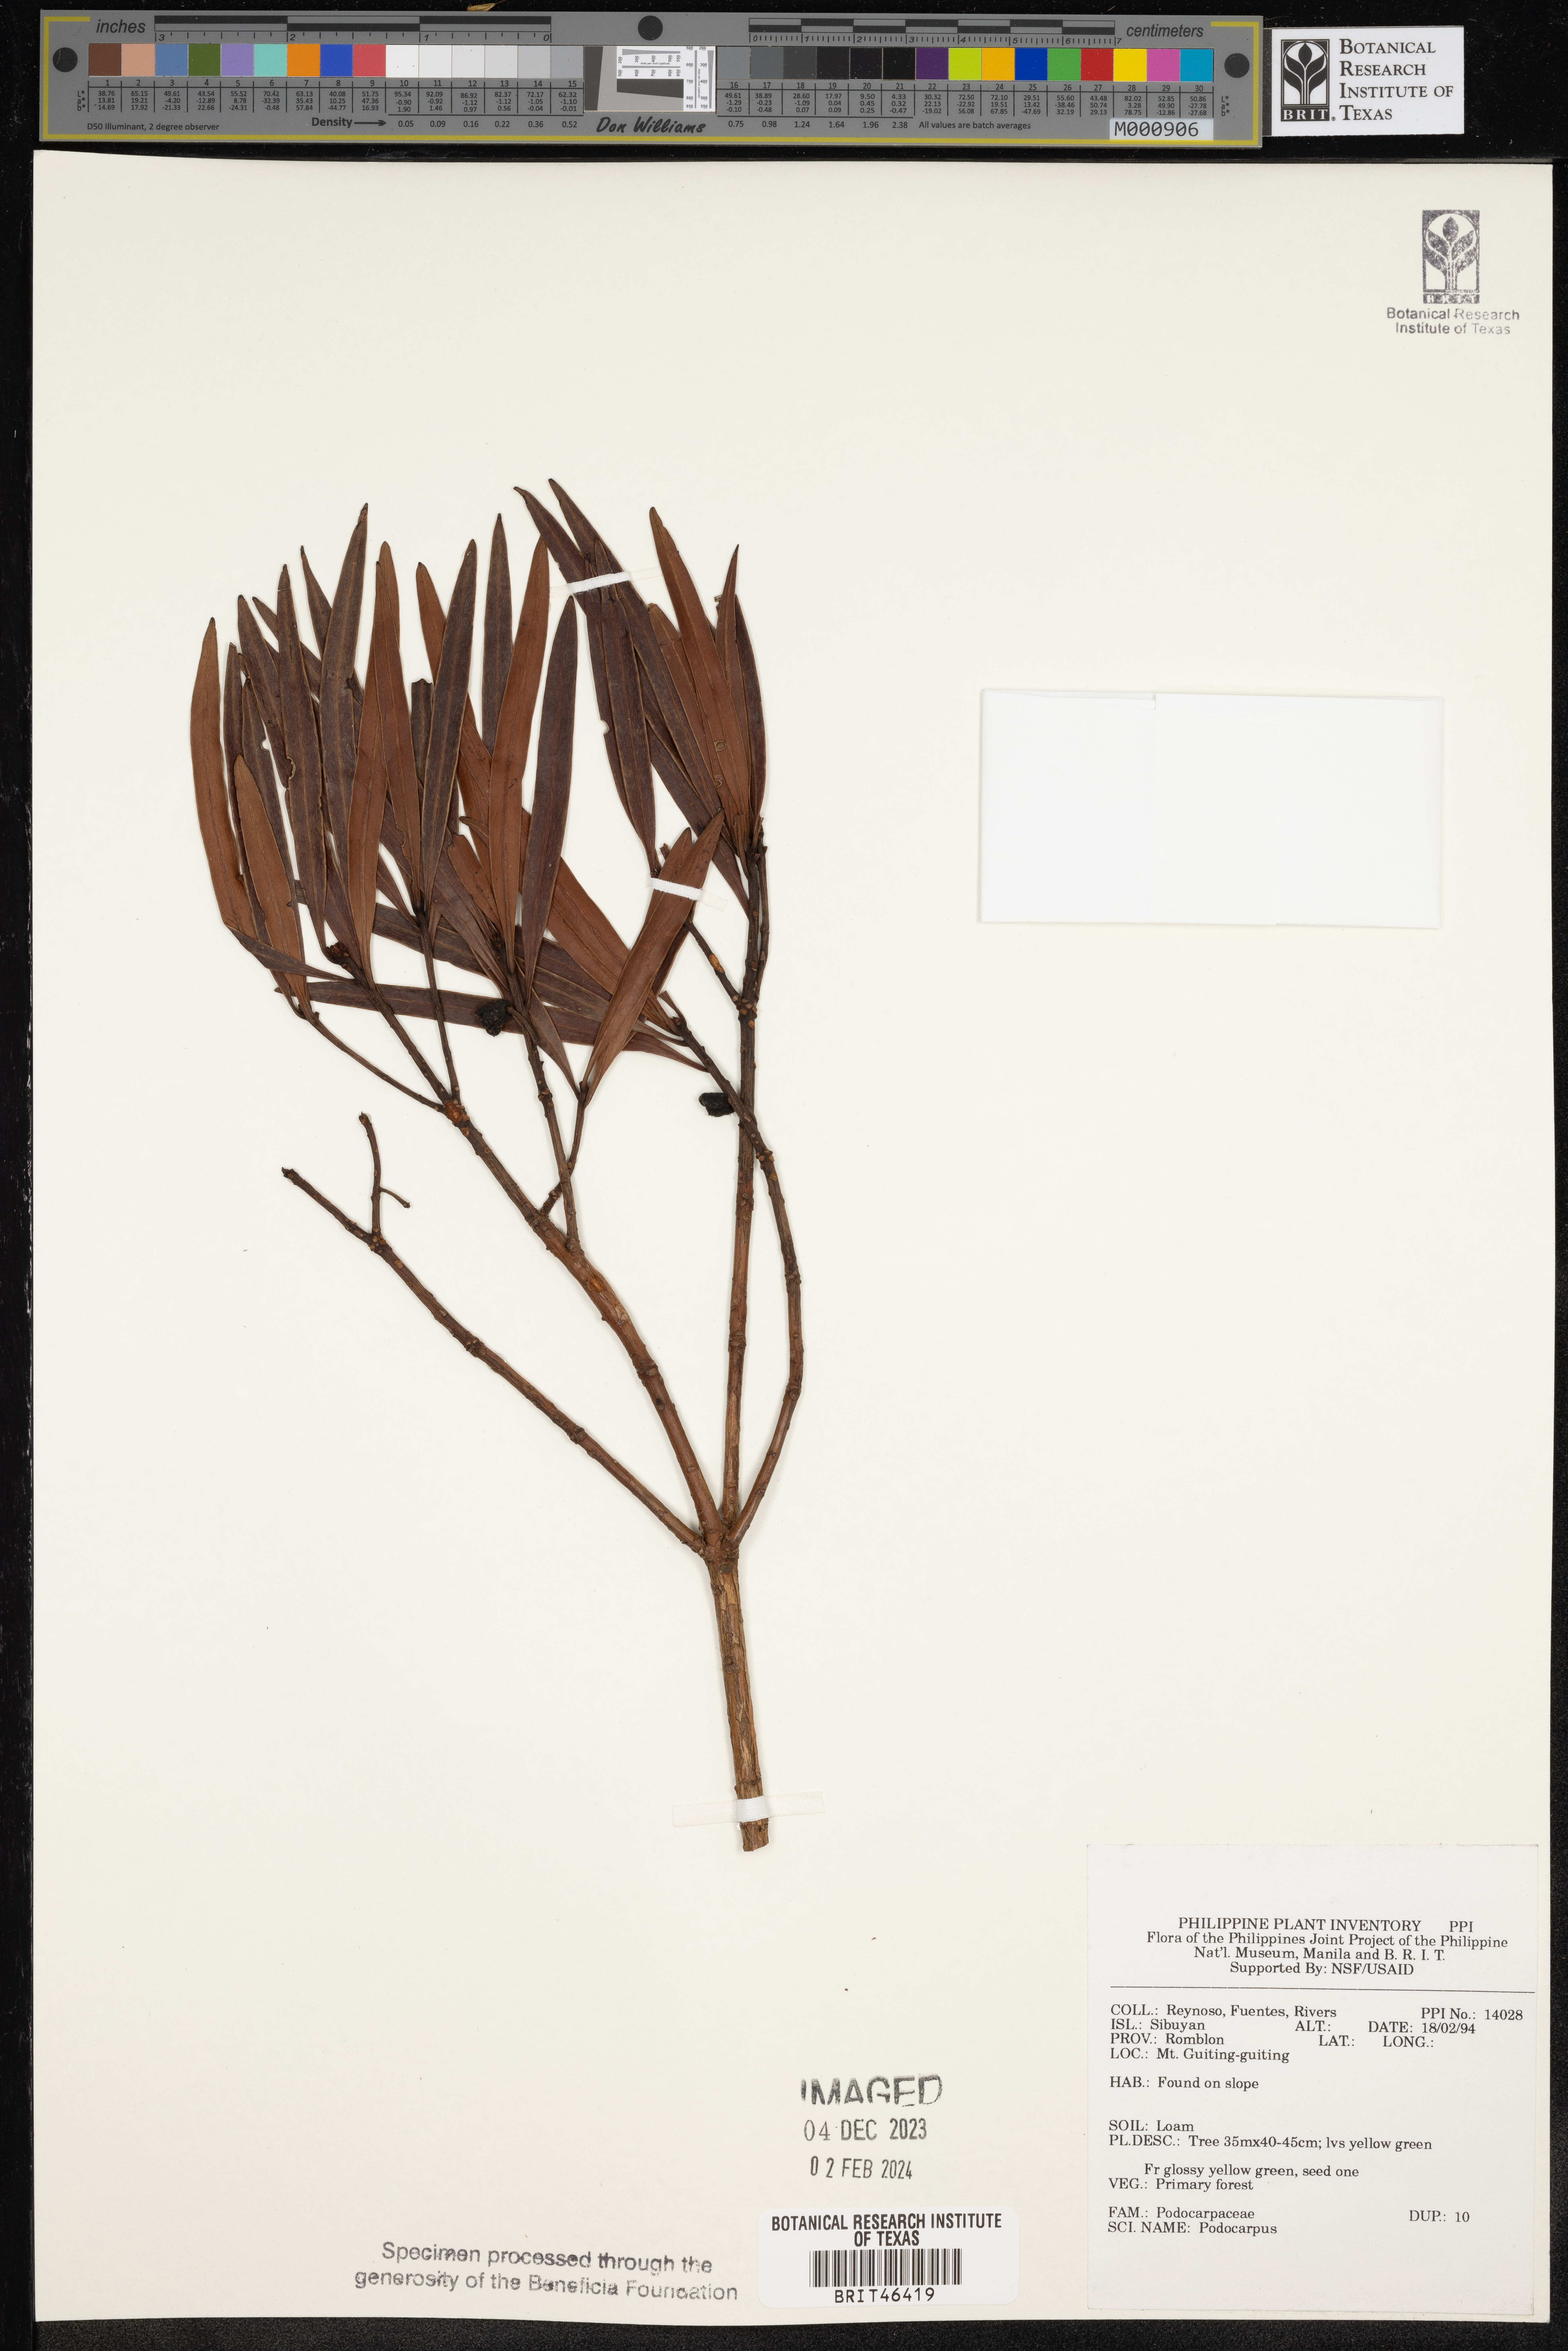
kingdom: Plantae
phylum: Tracheophyta
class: Pinopsida
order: Pinales
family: Podocarpaceae
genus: Podocarpus
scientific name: Podocarpus
